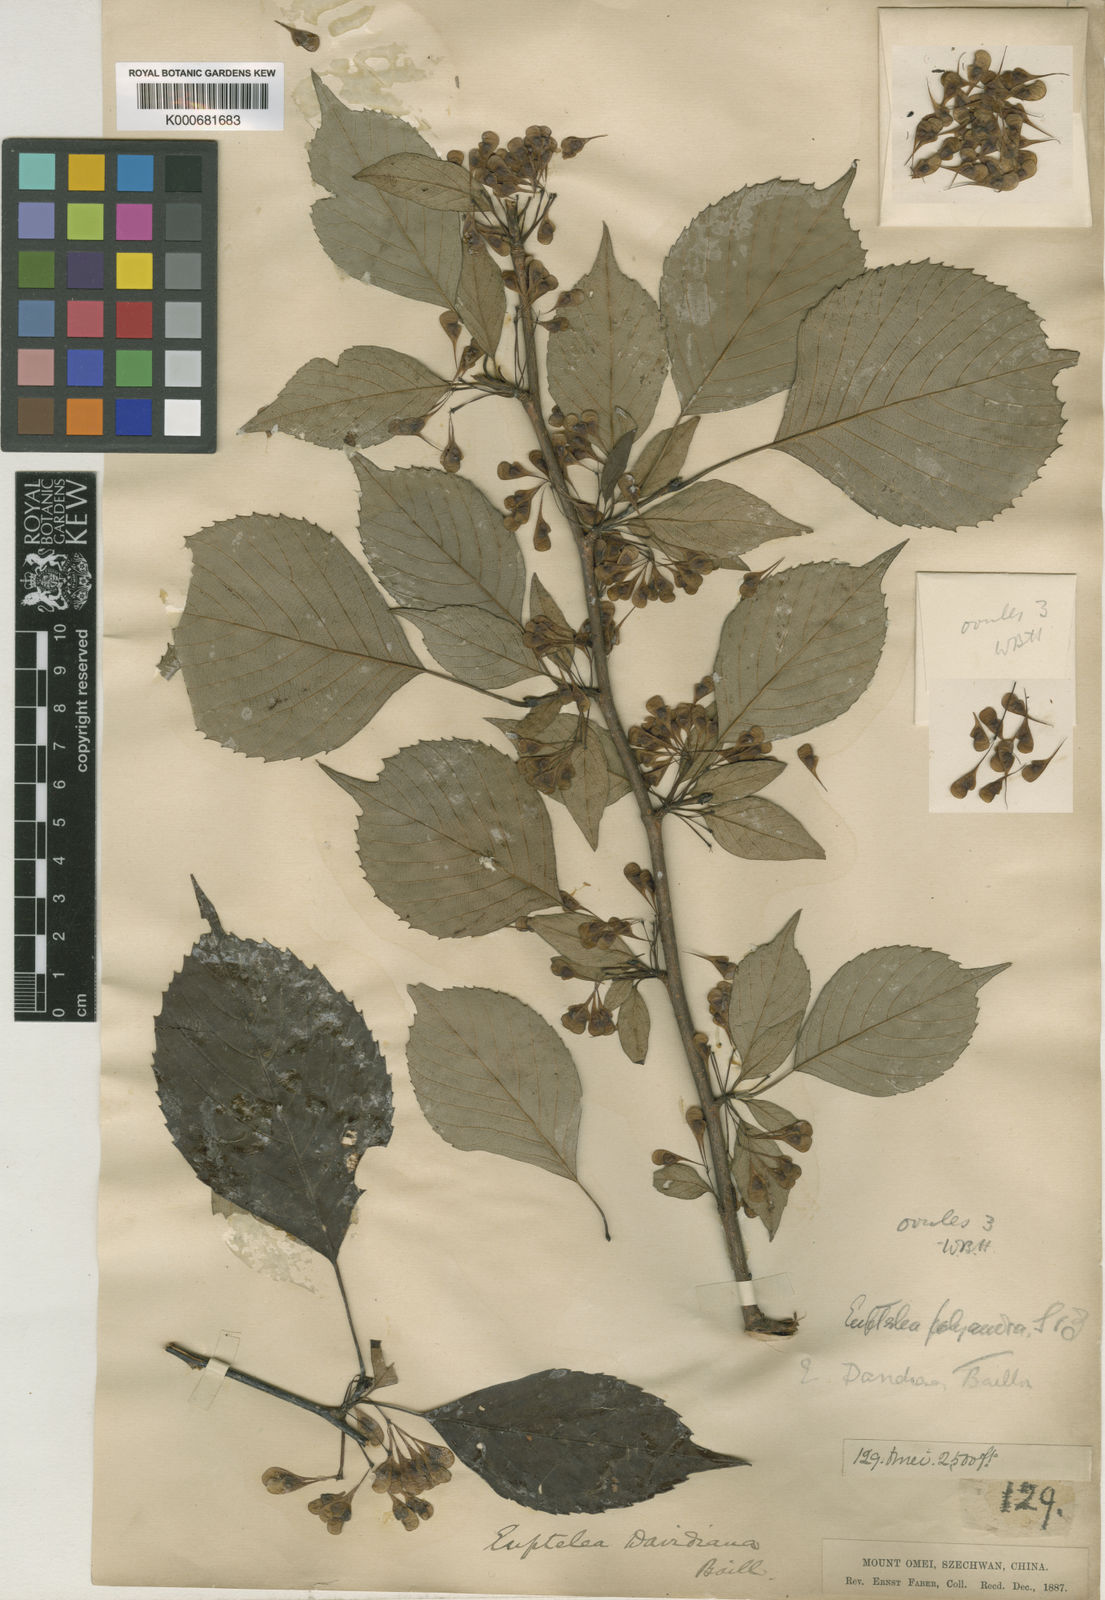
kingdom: Plantae
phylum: Tracheophyta
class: Magnoliopsida
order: Ranunculales
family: Eupteleaceae
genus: Euptelea
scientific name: Euptelea pleiosperma
